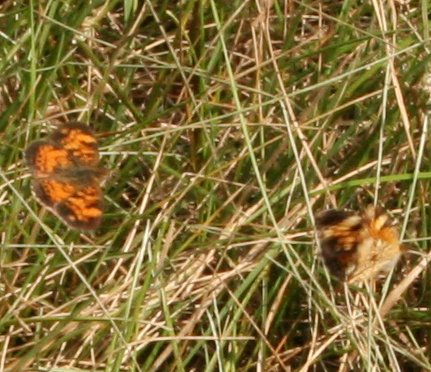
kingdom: Animalia
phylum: Arthropoda
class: Insecta
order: Lepidoptera
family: Nymphalidae
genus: Phyciodes
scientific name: Phyciodes
